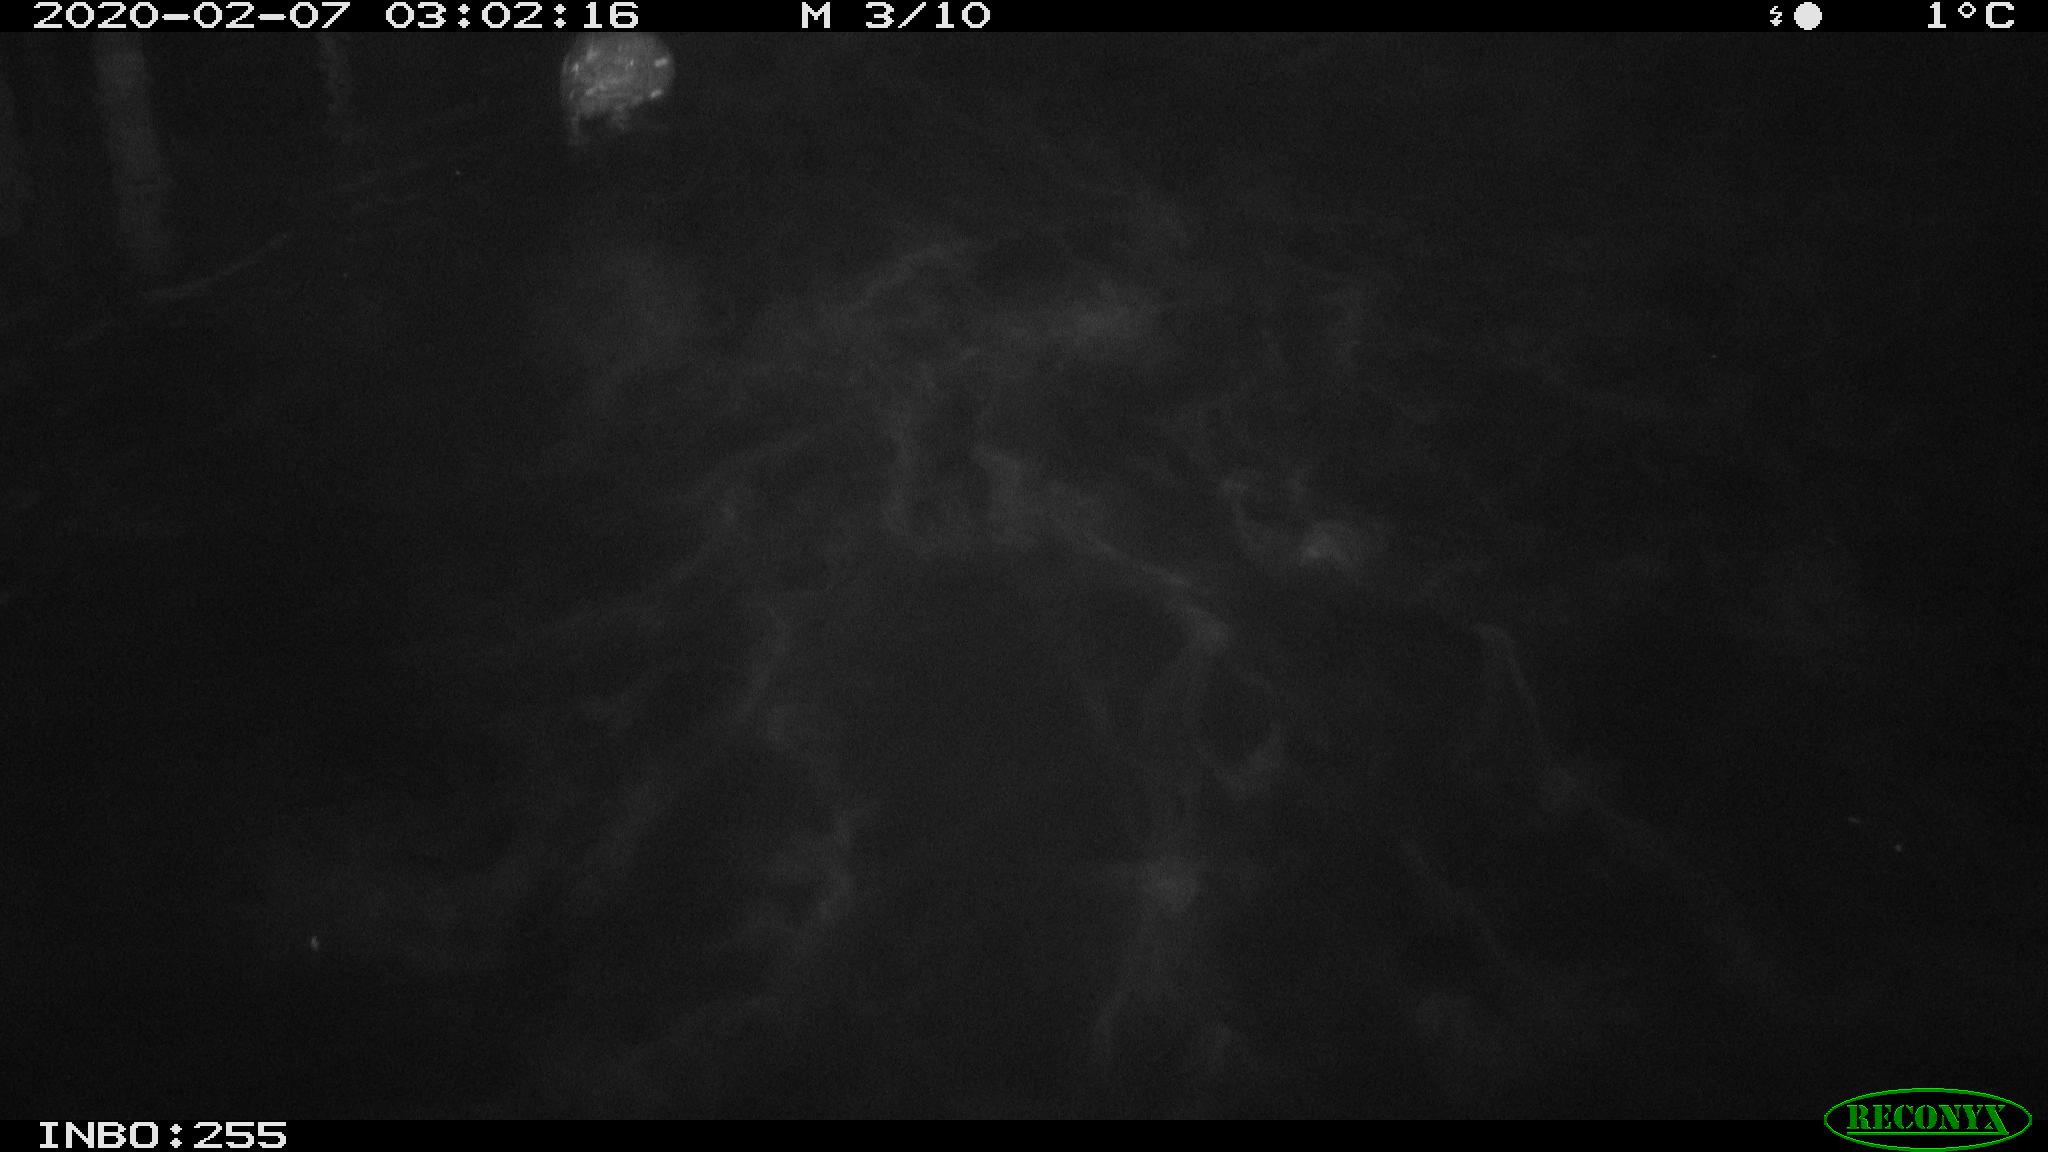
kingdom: Animalia
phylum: Chordata
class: Aves
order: Gruiformes
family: Rallidae
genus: Gallinula
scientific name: Gallinula chloropus
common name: Common moorhen
